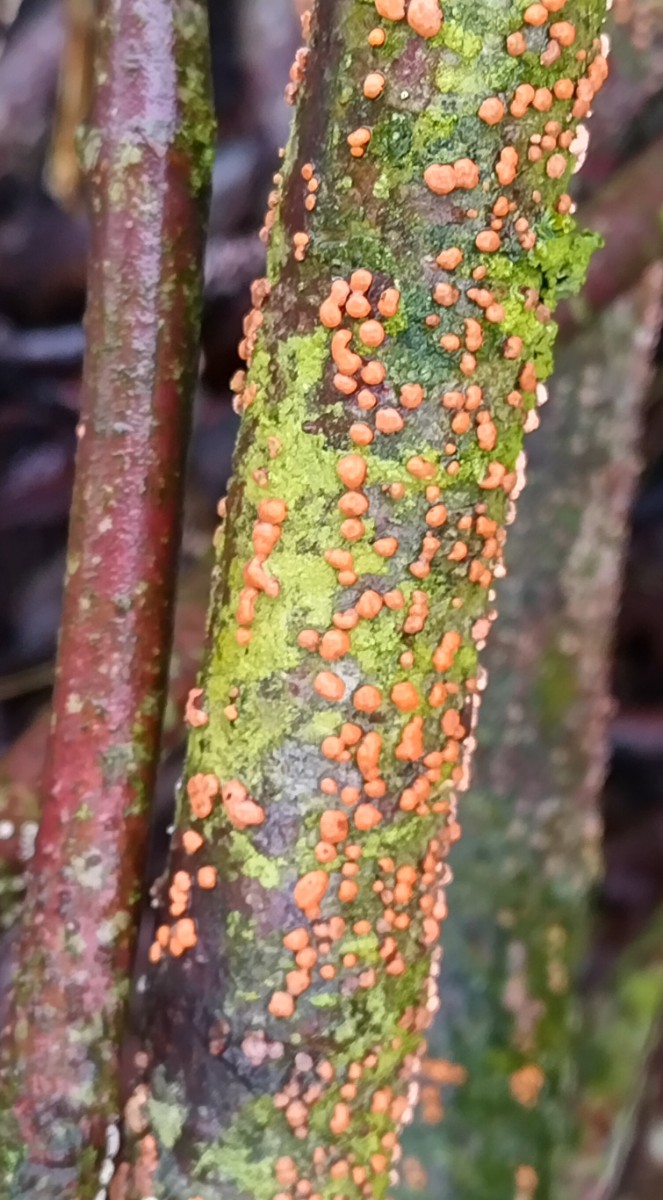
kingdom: Fungi
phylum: Ascomycota
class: Sordariomycetes
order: Hypocreales
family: Nectriaceae
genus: Nectria
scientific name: Nectria cinnabarina
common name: almindelig cinnobersvamp
